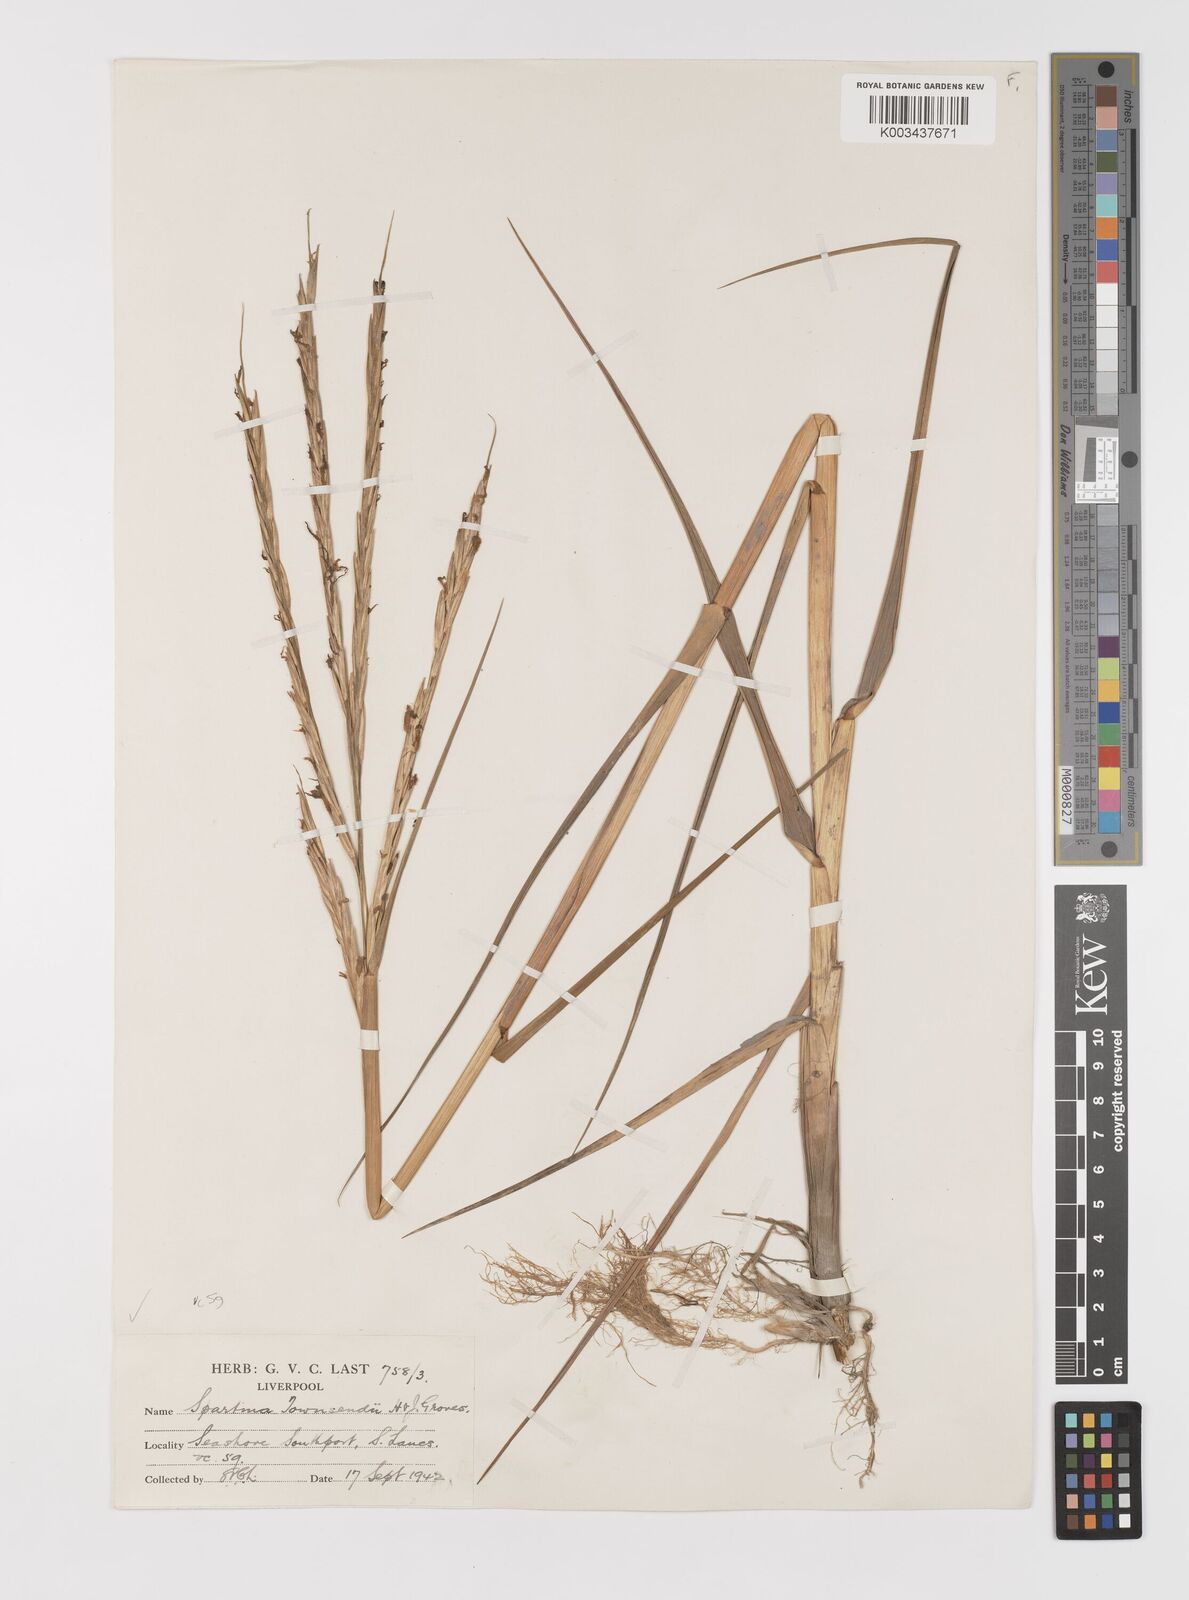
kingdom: Plantae
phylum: Tracheophyta
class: Liliopsida
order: Poales
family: Poaceae
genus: Sporobolus
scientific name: Sporobolus anglicus
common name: English cordgrass
